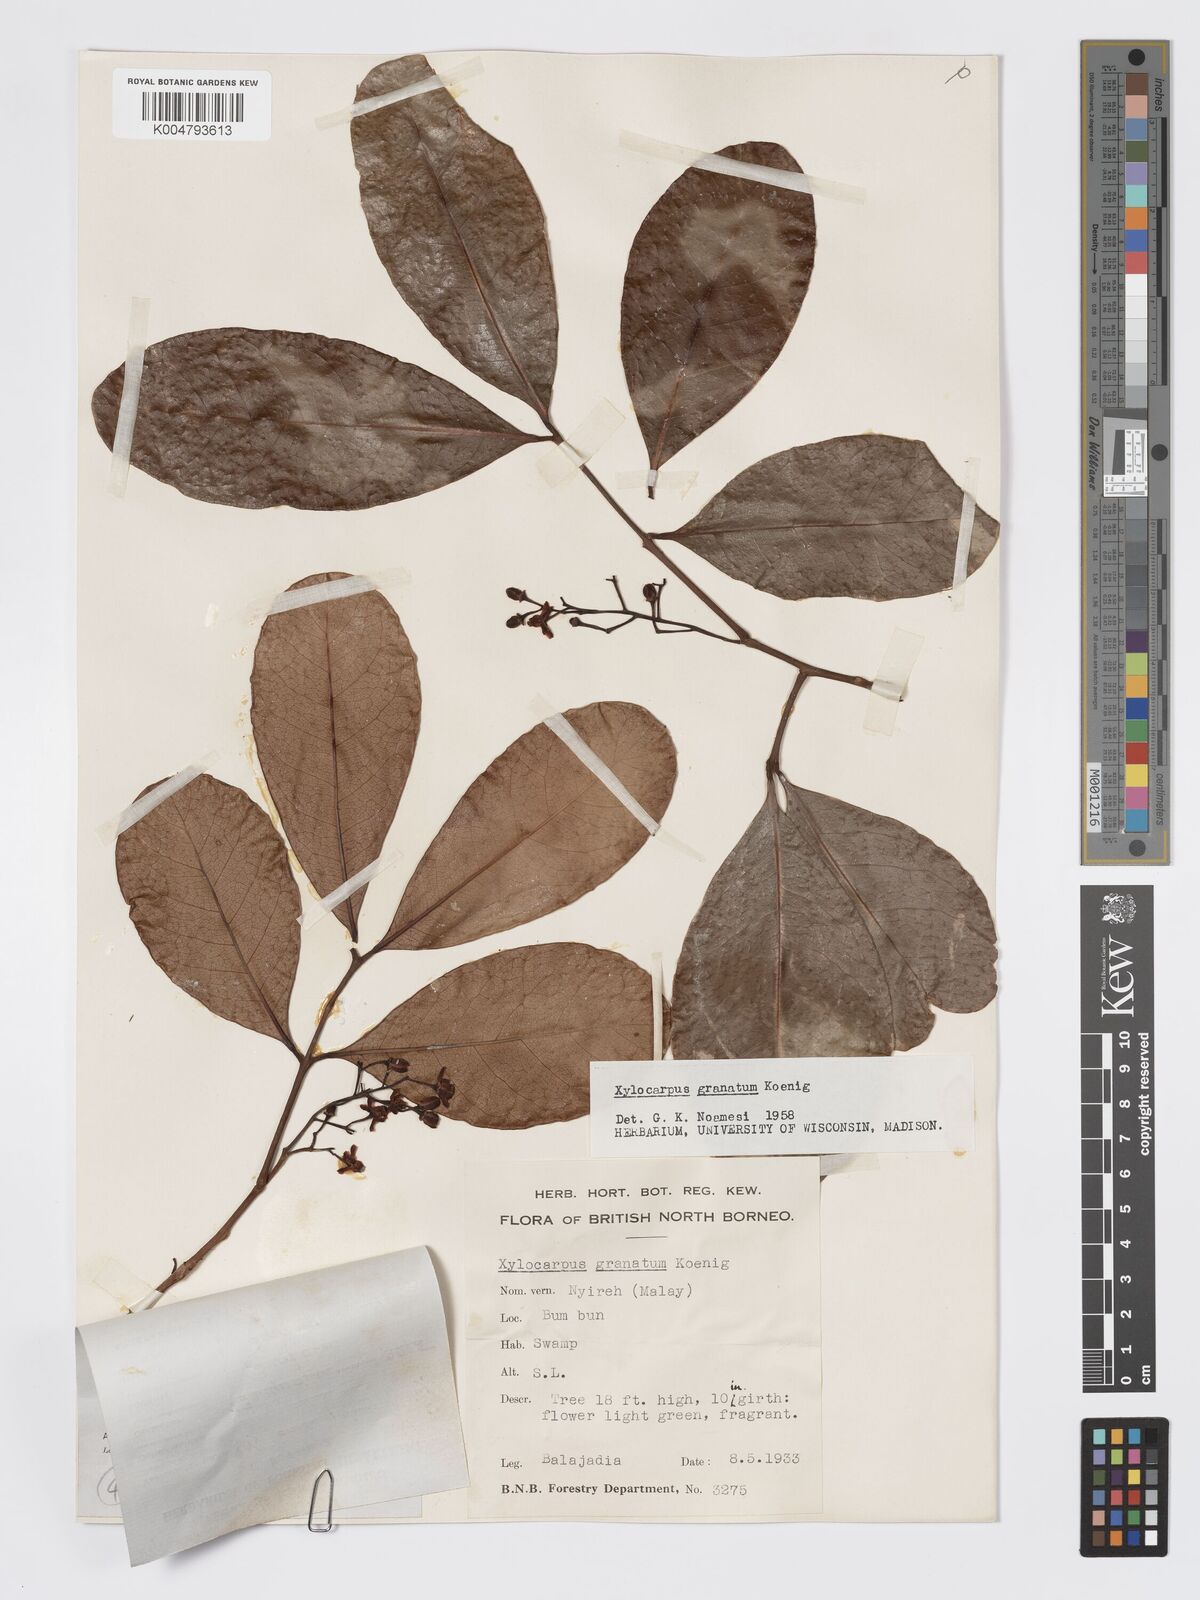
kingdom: Plantae
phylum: Tracheophyta
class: Magnoliopsida
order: Sapindales
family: Meliaceae
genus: Xylocarpus
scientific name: Xylocarpus granatum
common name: Apple mangrove
